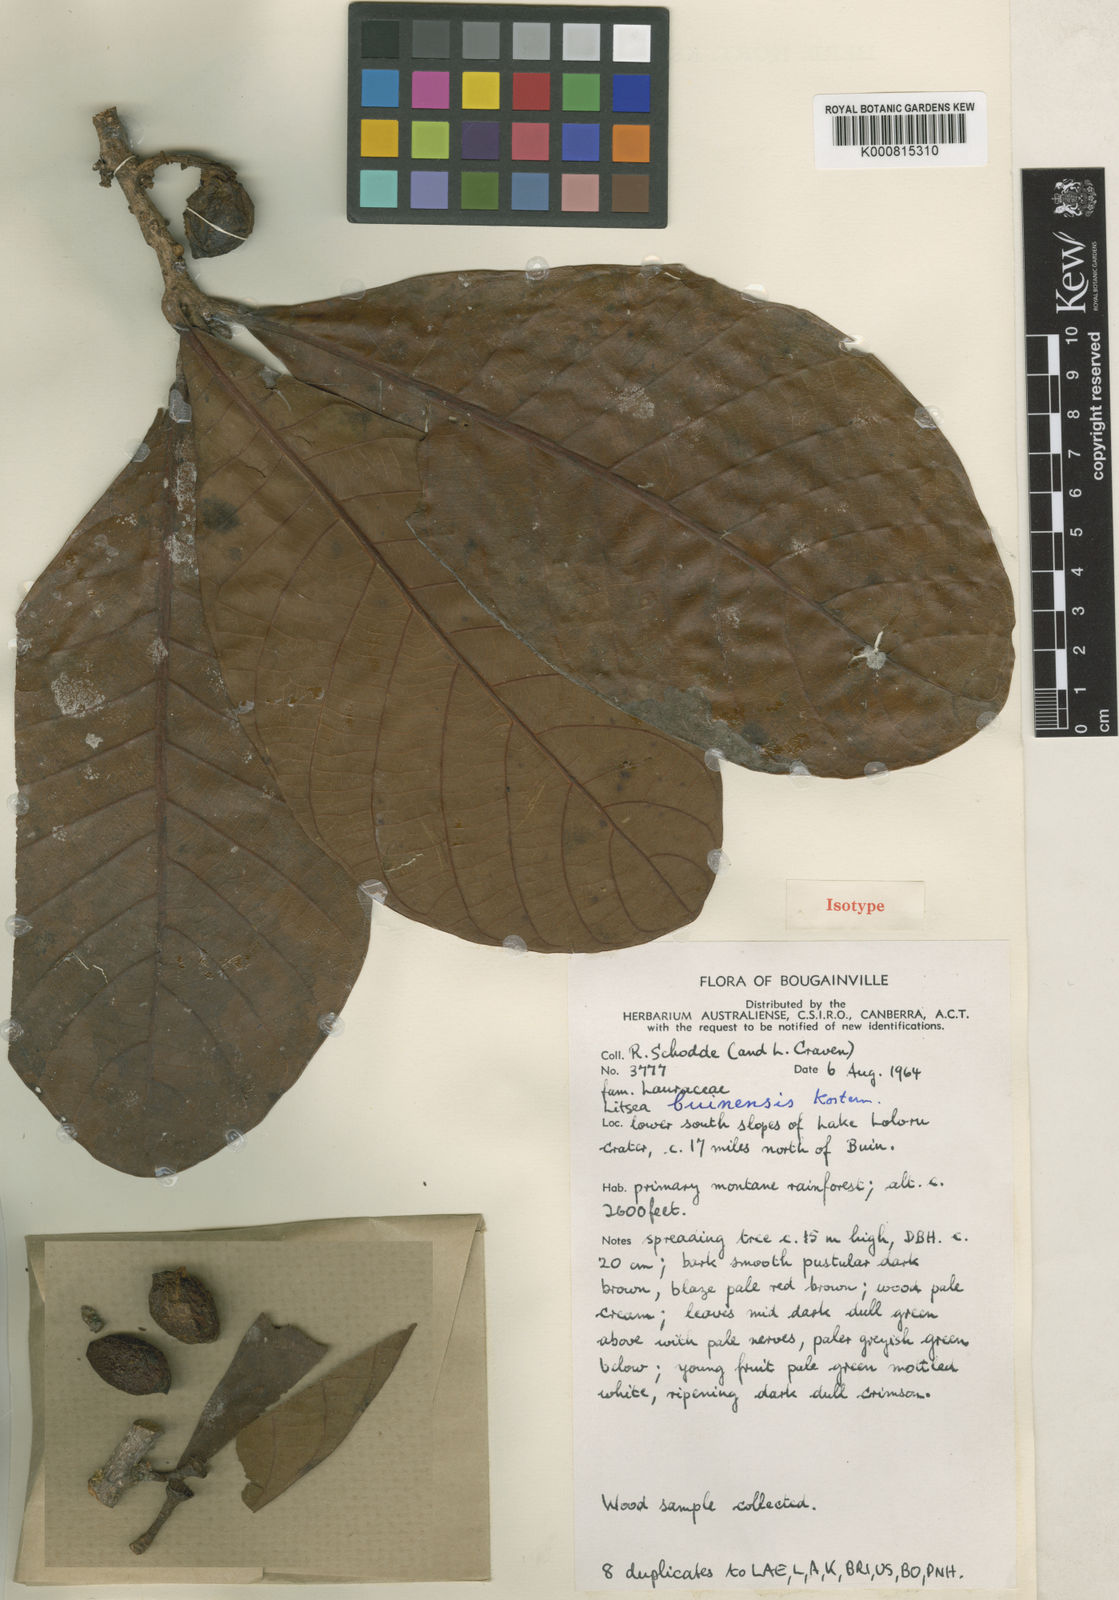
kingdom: Plantae
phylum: Tracheophyta
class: Magnoliopsida
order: Laurales
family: Lauraceae
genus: Litsea
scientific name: Litsea buinensis
